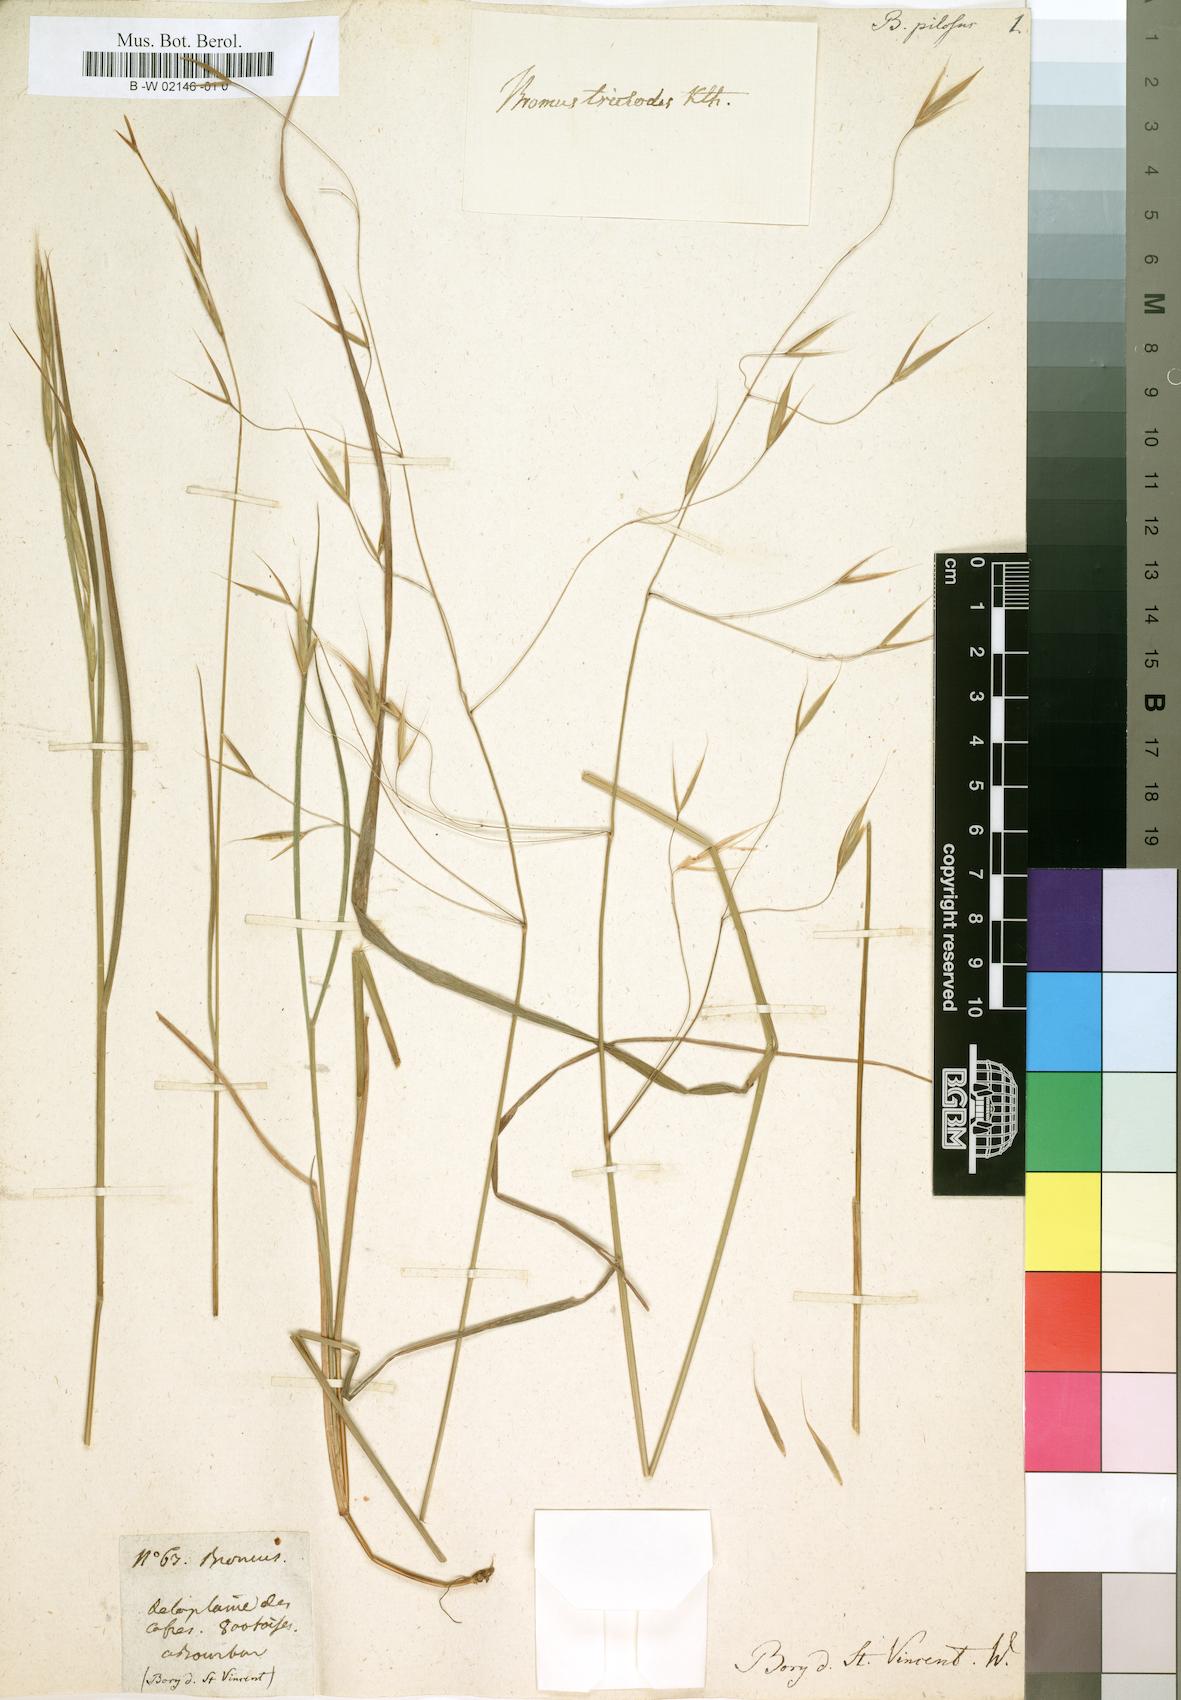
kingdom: Plantae
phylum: Tracheophyta
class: Liliopsida
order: Poales
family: Poaceae
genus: Bromus
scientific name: Bromus
